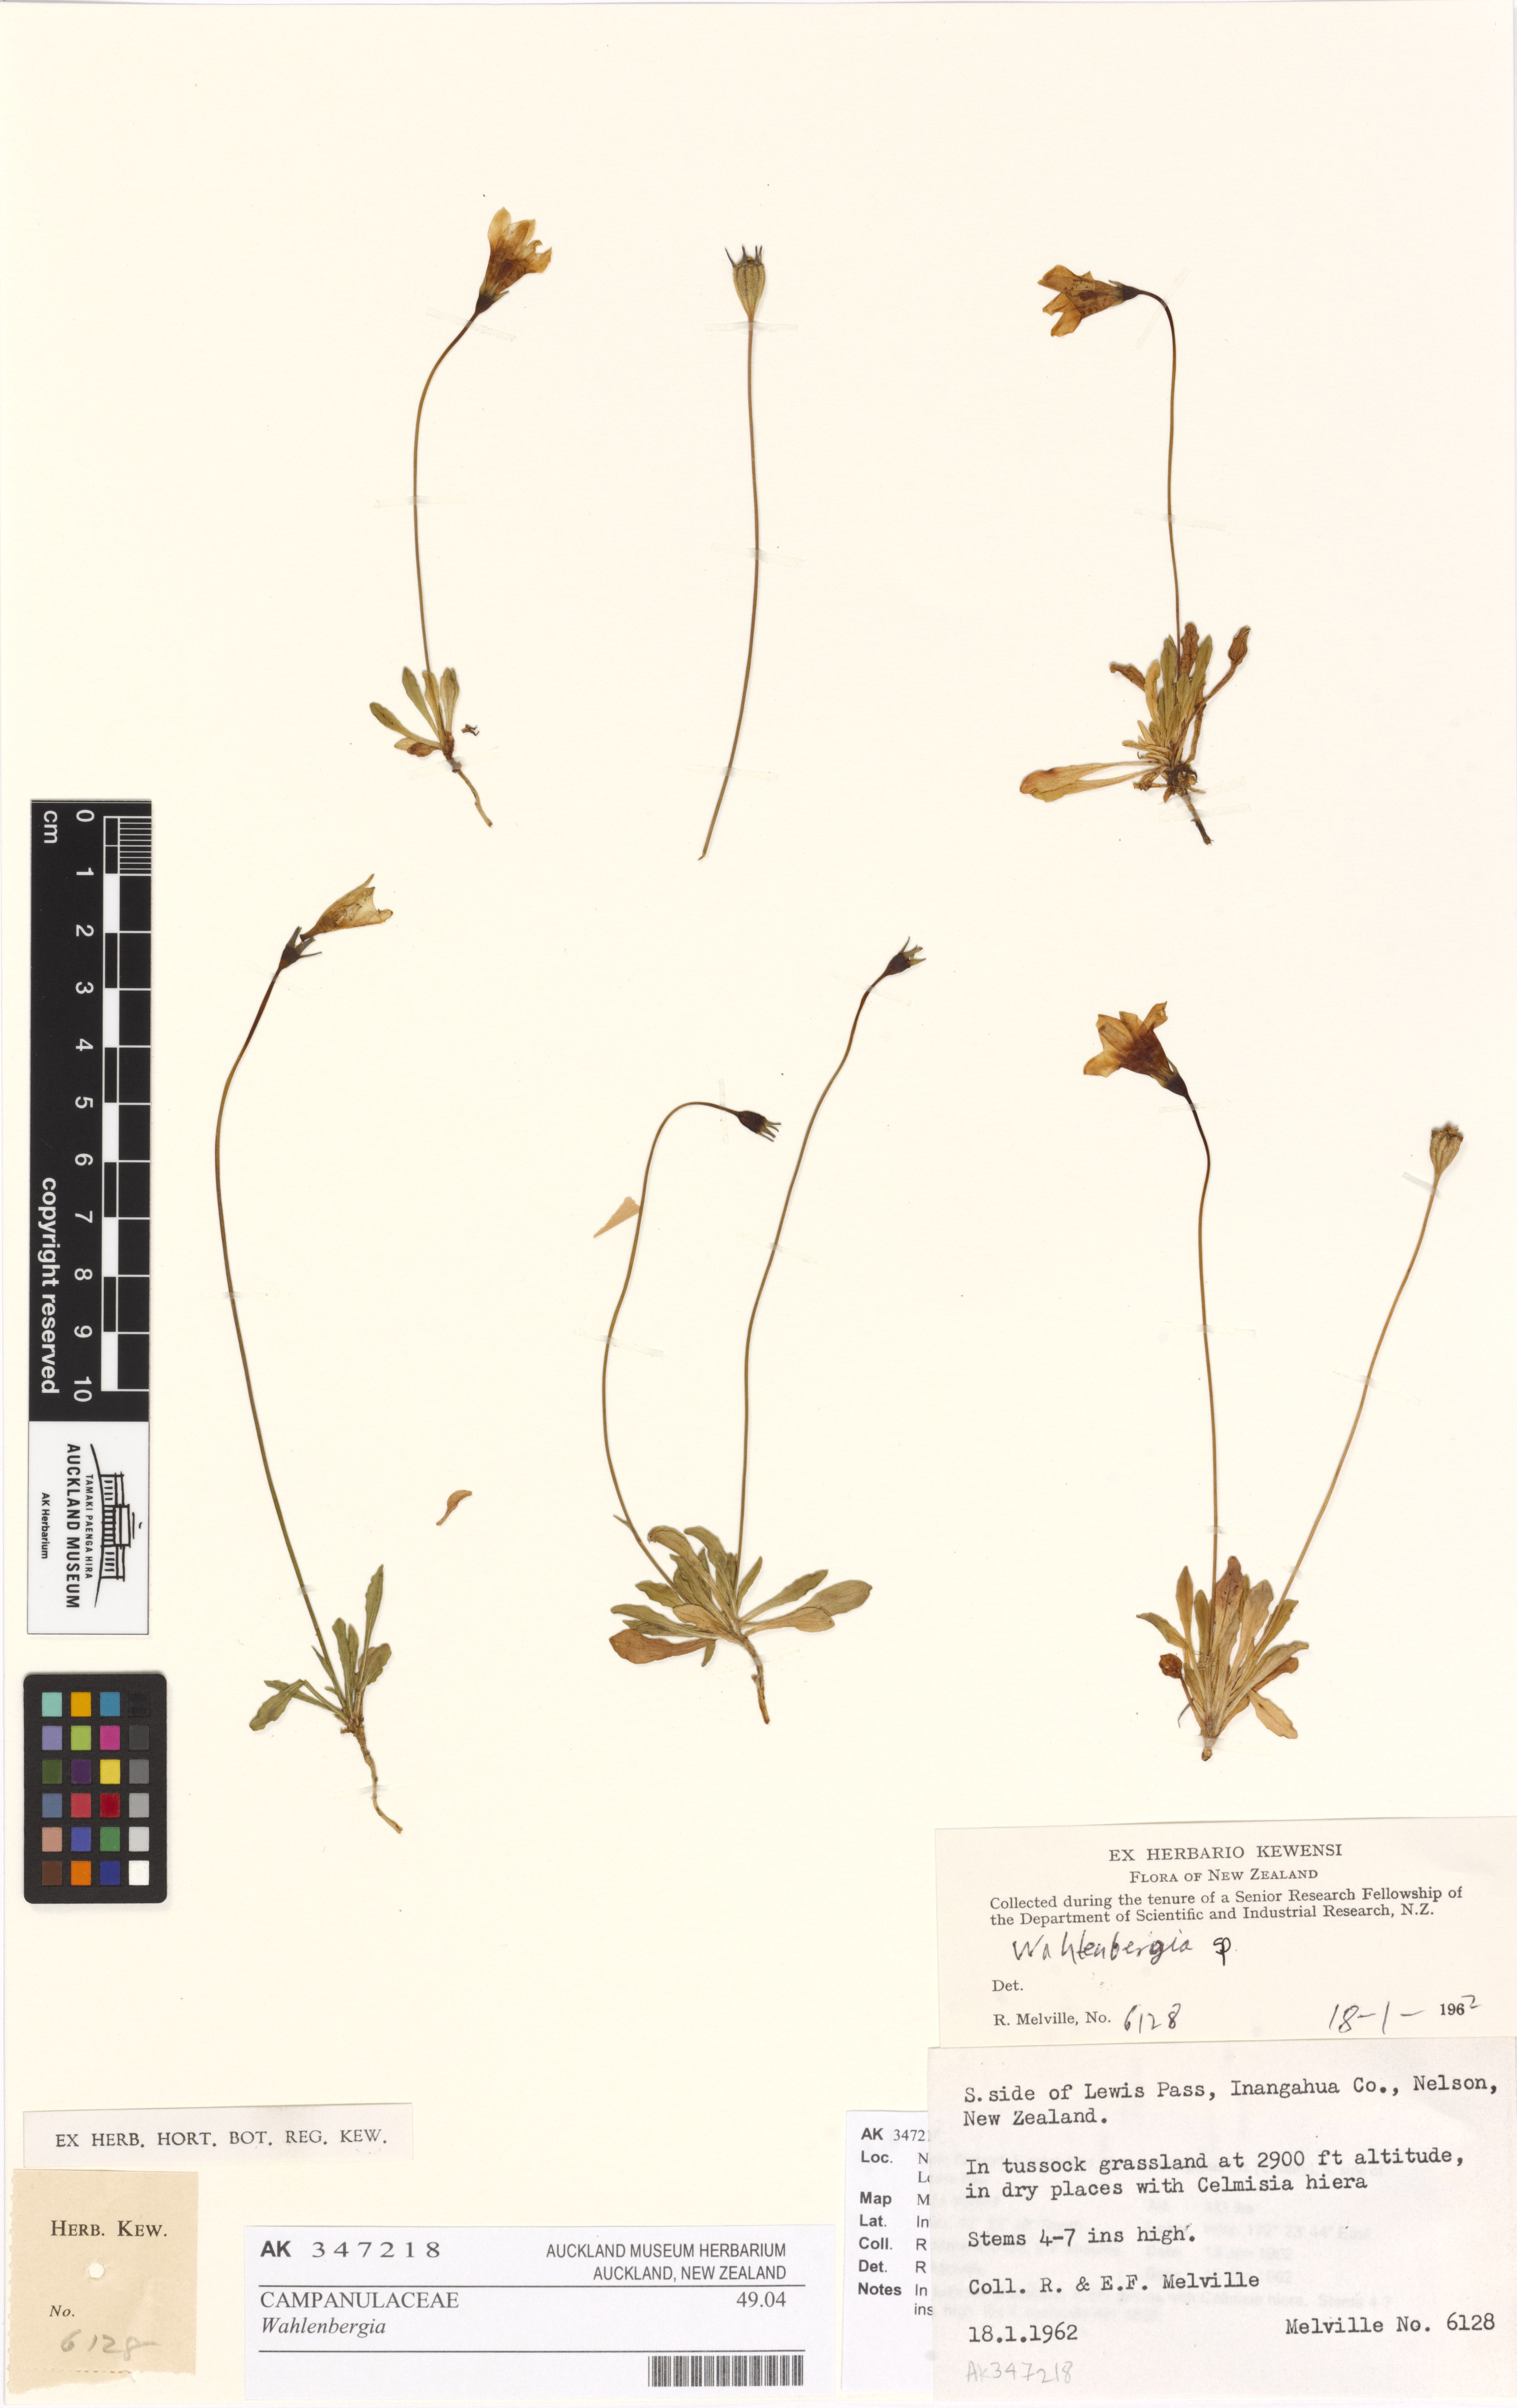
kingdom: Plantae
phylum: Tracheophyta
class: Magnoliopsida
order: Asterales
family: Campanulaceae
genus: Wahlenbergia
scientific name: Wahlenbergia
